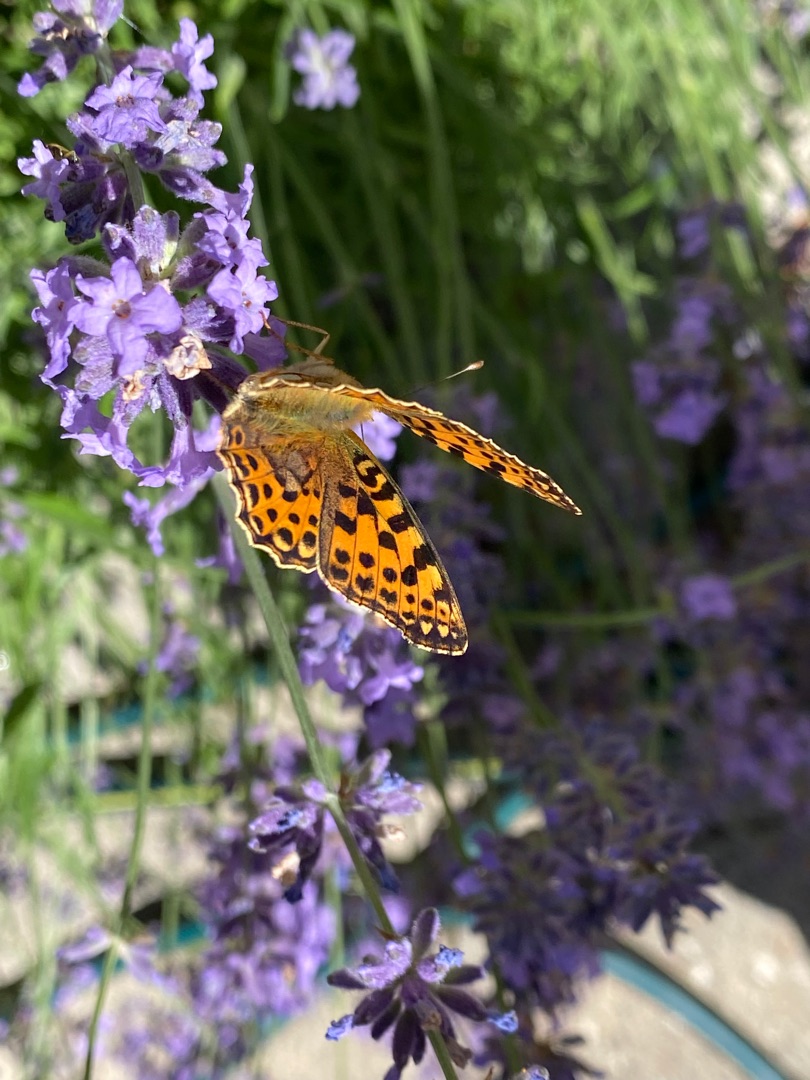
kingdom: Animalia
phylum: Arthropoda
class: Insecta
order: Lepidoptera
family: Nymphalidae
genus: Issoria
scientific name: Issoria lathonia
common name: Storplettet perlemorsommerfugl
